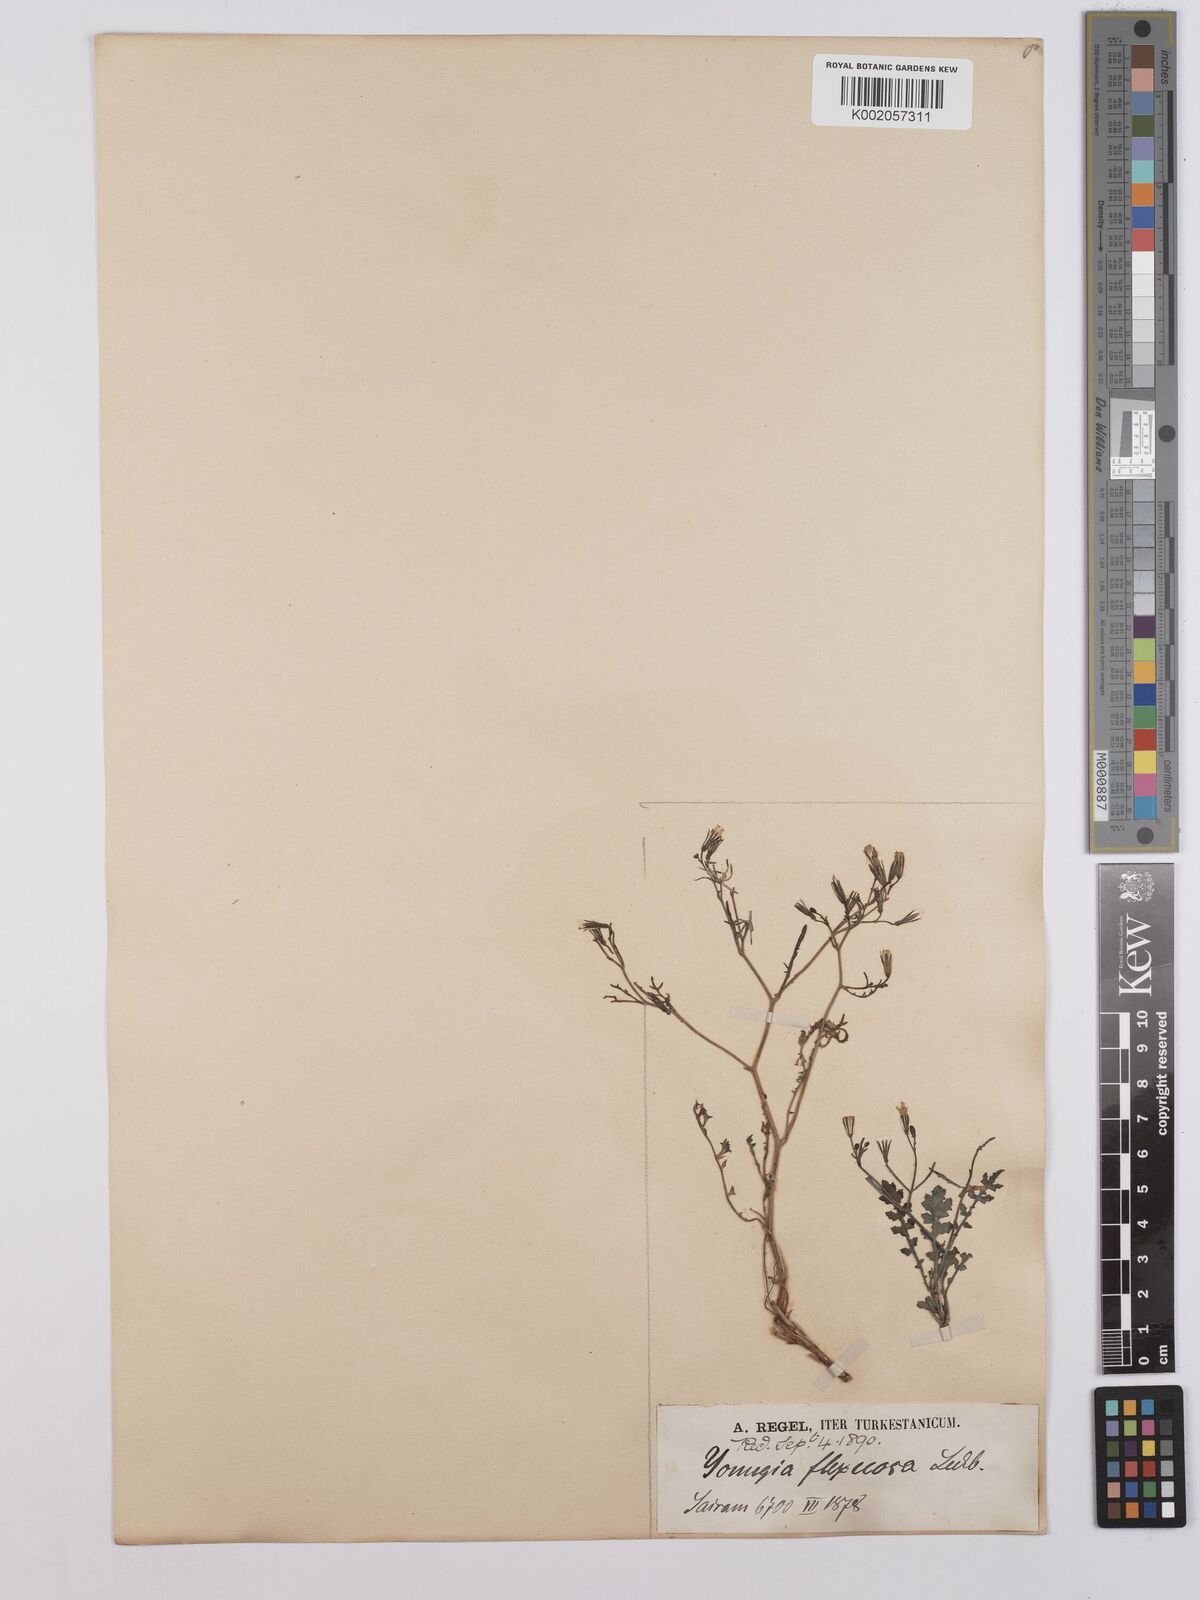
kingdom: Plantae
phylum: Tracheophyta
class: Magnoliopsida
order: Asterales
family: Asteraceae
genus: Askellia
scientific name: Askellia flexuosa
